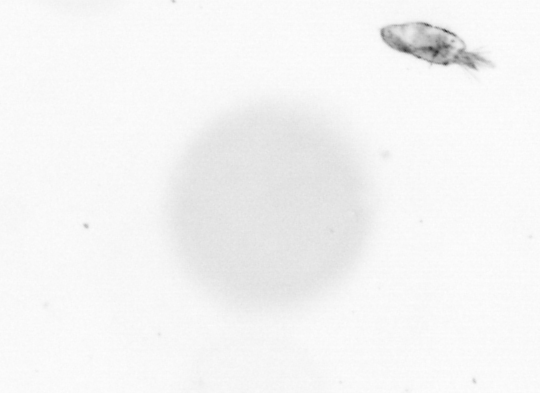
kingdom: Animalia
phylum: Arthropoda
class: Copepoda
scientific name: Copepoda
